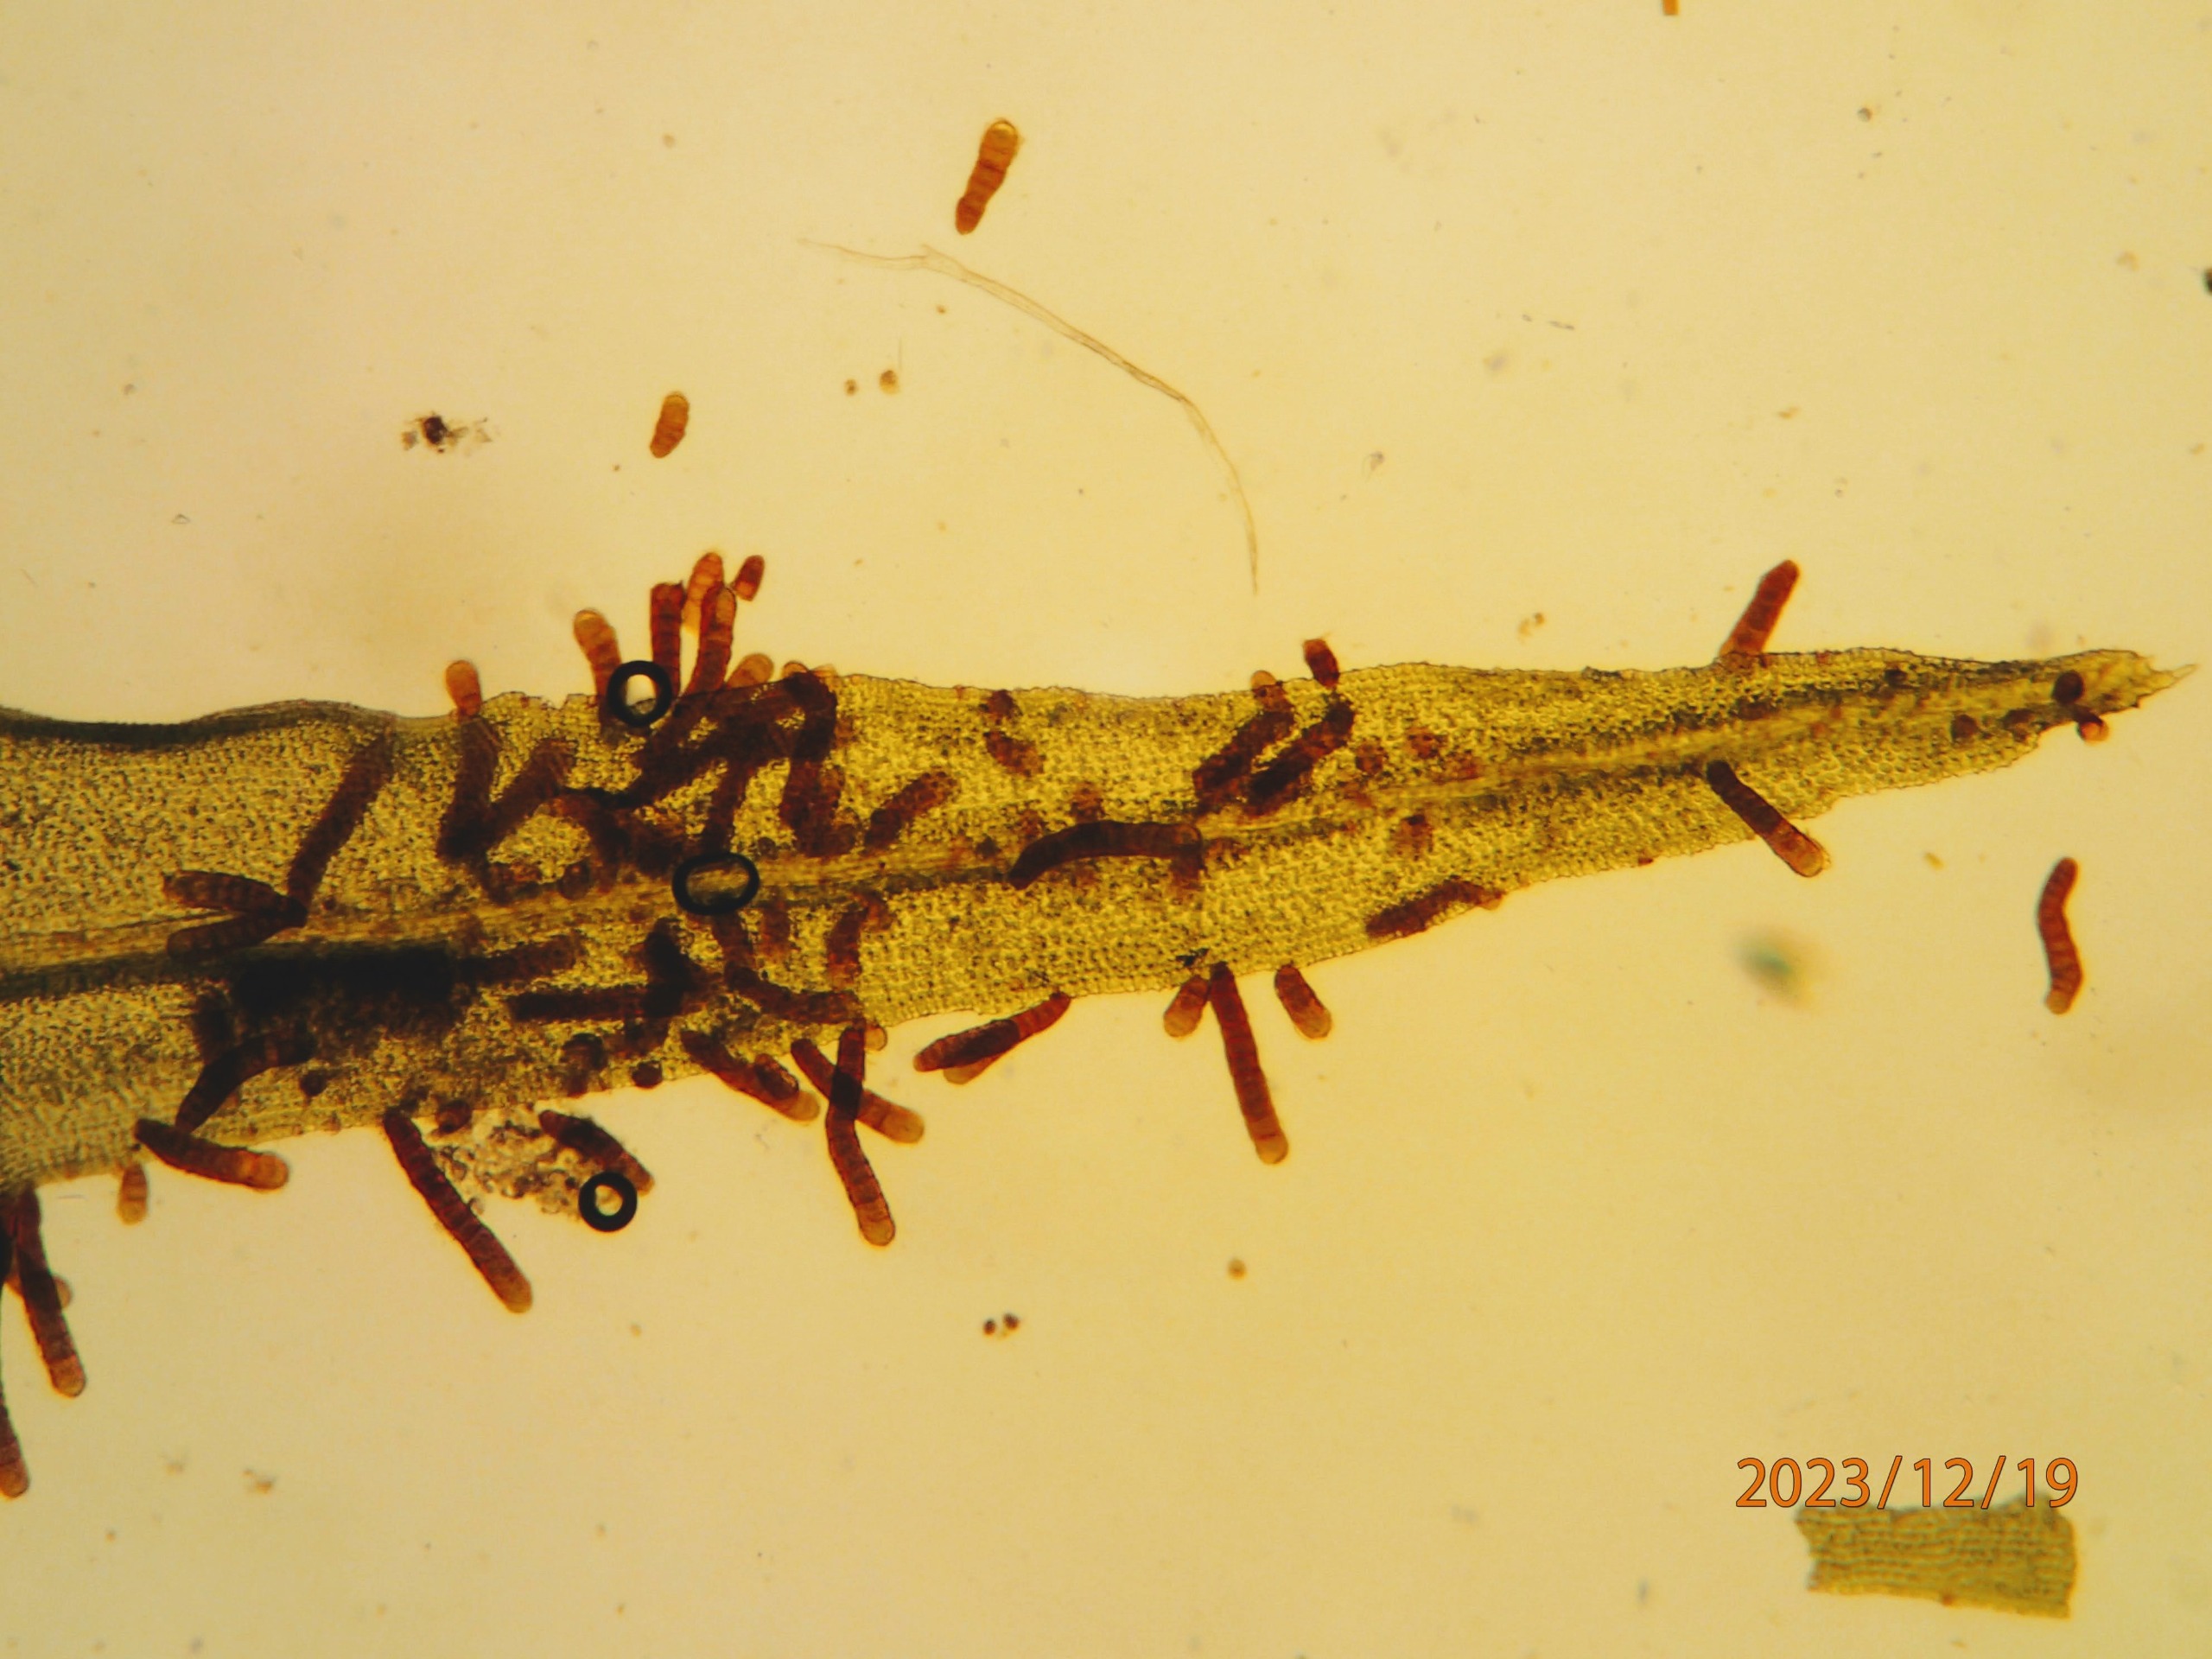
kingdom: Plantae
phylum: Bryophyta
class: Bryopsida
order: Orthotrichales
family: Orthotrichaceae
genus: Pulvigera
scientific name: Pulvigera lyellii
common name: Stor furehætte
